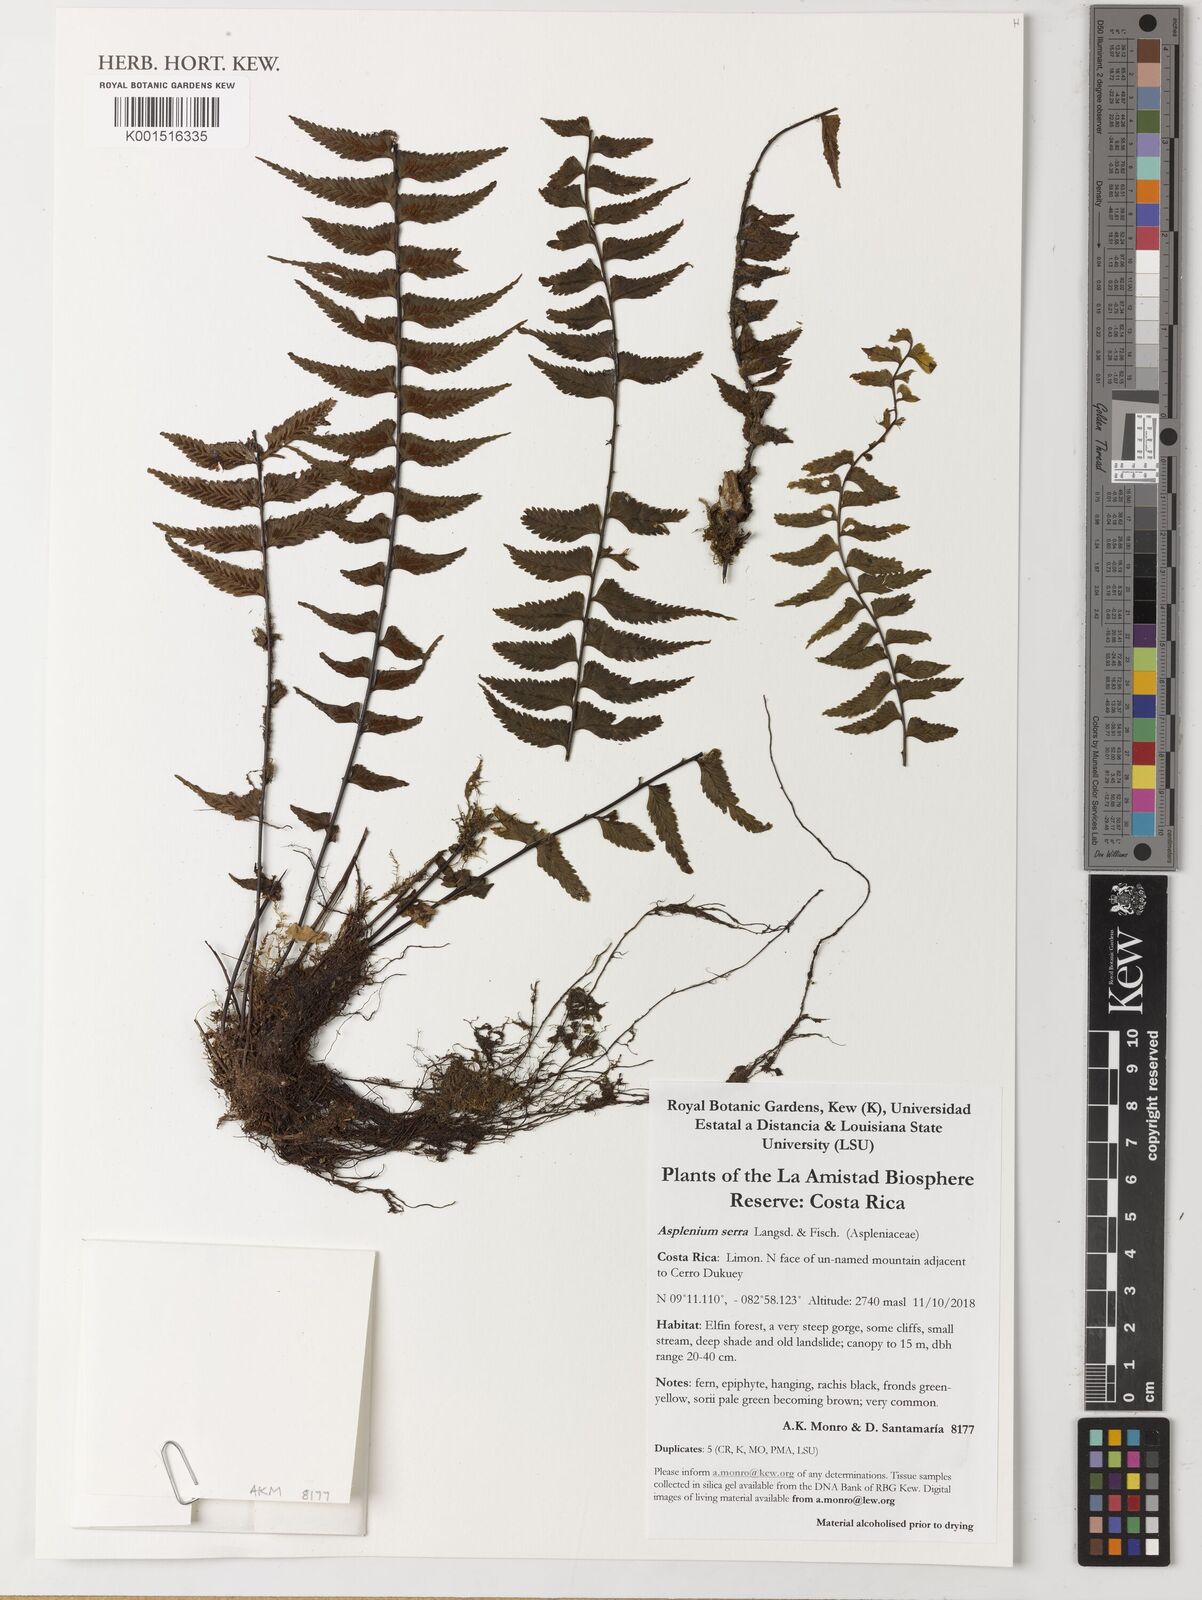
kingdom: Plantae
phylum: Tracheophyta
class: Polypodiopsida
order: Polypodiales
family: Aspleniaceae
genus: Asplenium
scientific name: Asplenium
